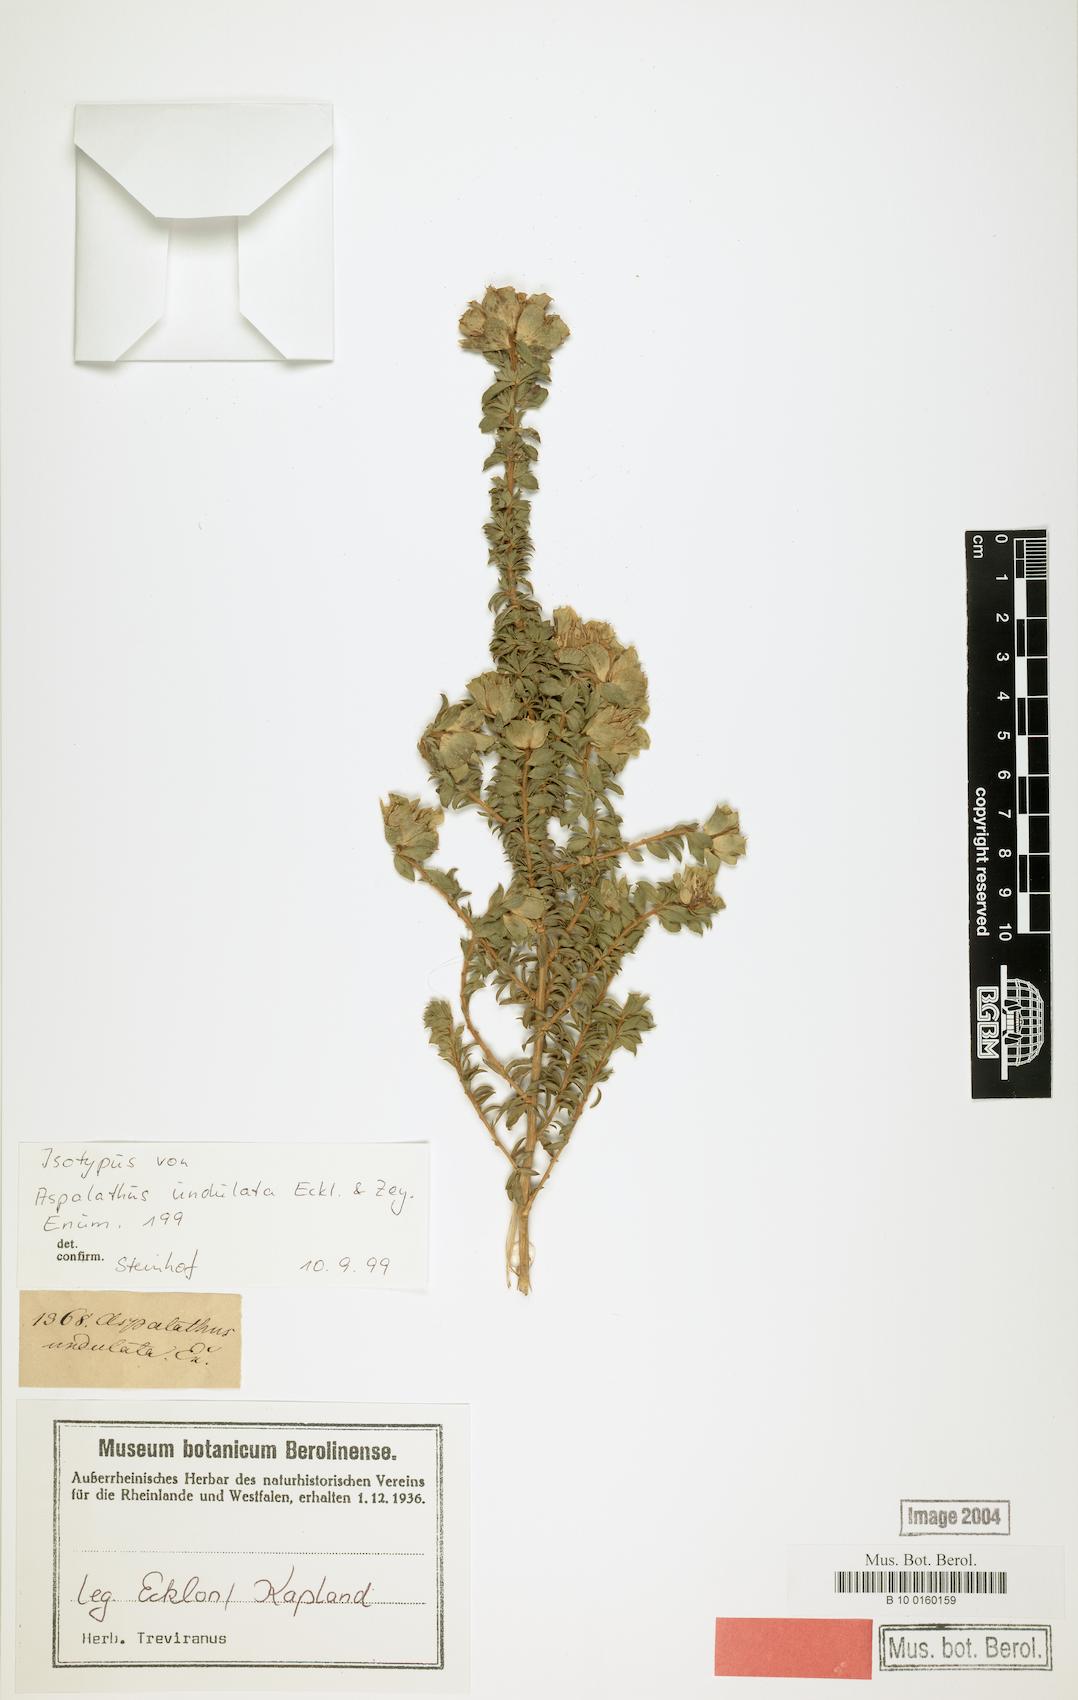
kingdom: Plantae
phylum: Tracheophyta
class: Magnoliopsida
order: Fabales
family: Fabaceae
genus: Aspalathus
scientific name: Aspalathus fasciculata
